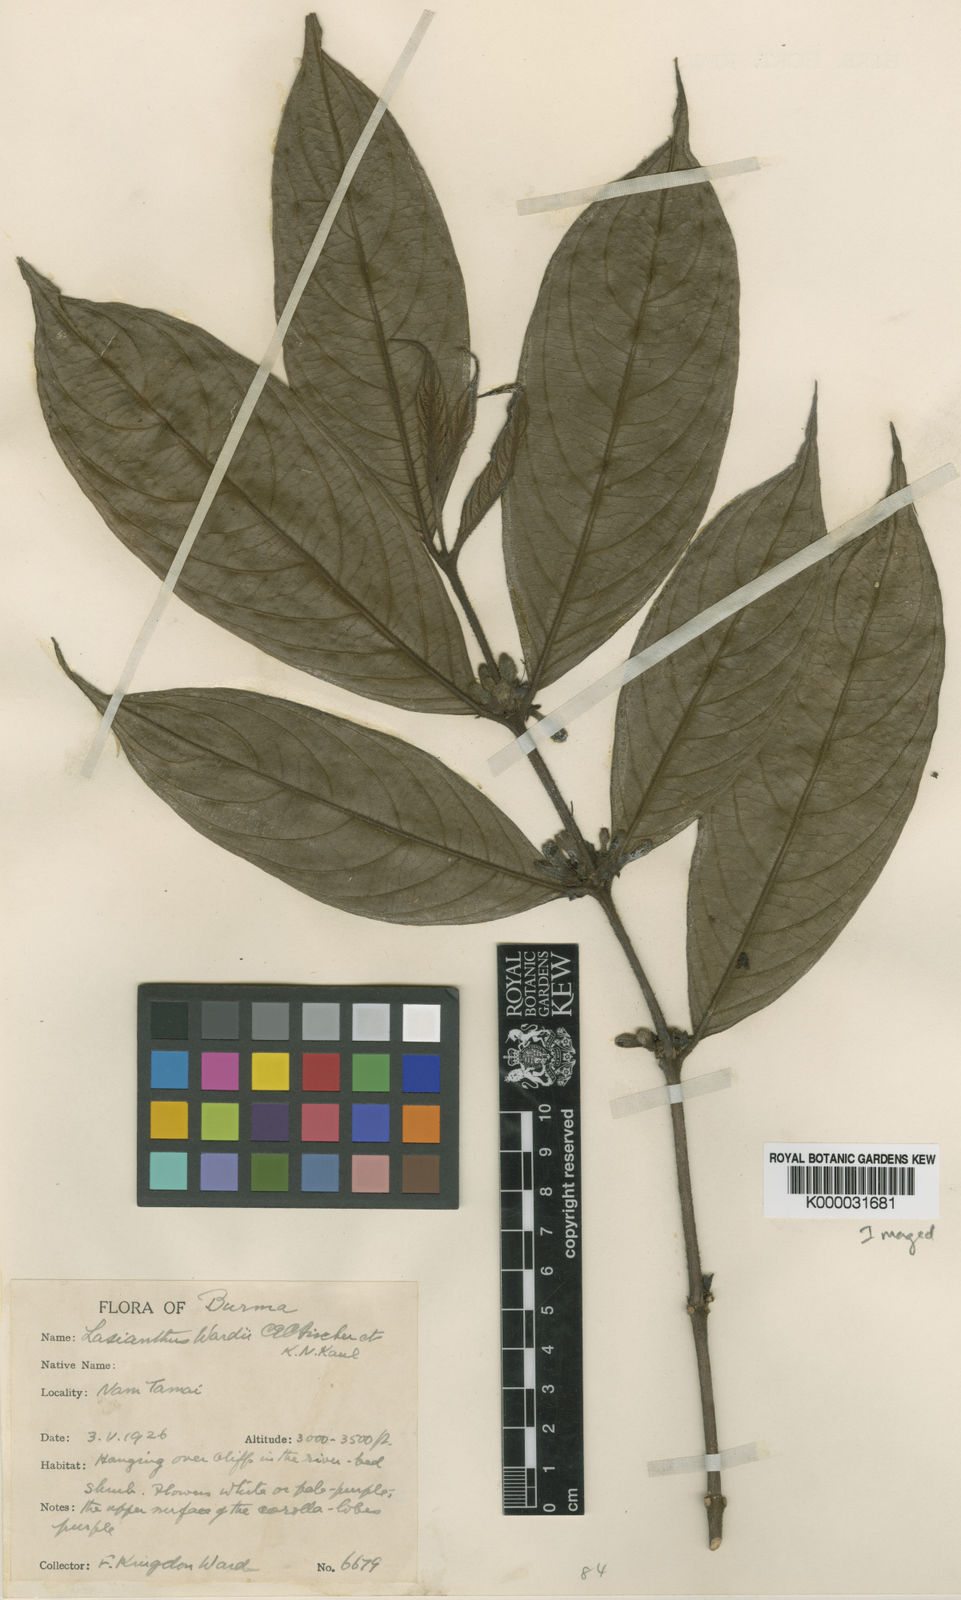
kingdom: Plantae
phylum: Tracheophyta
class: Magnoliopsida
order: Gentianales
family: Rubiaceae
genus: Lasianthus
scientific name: Lasianthus wardii
